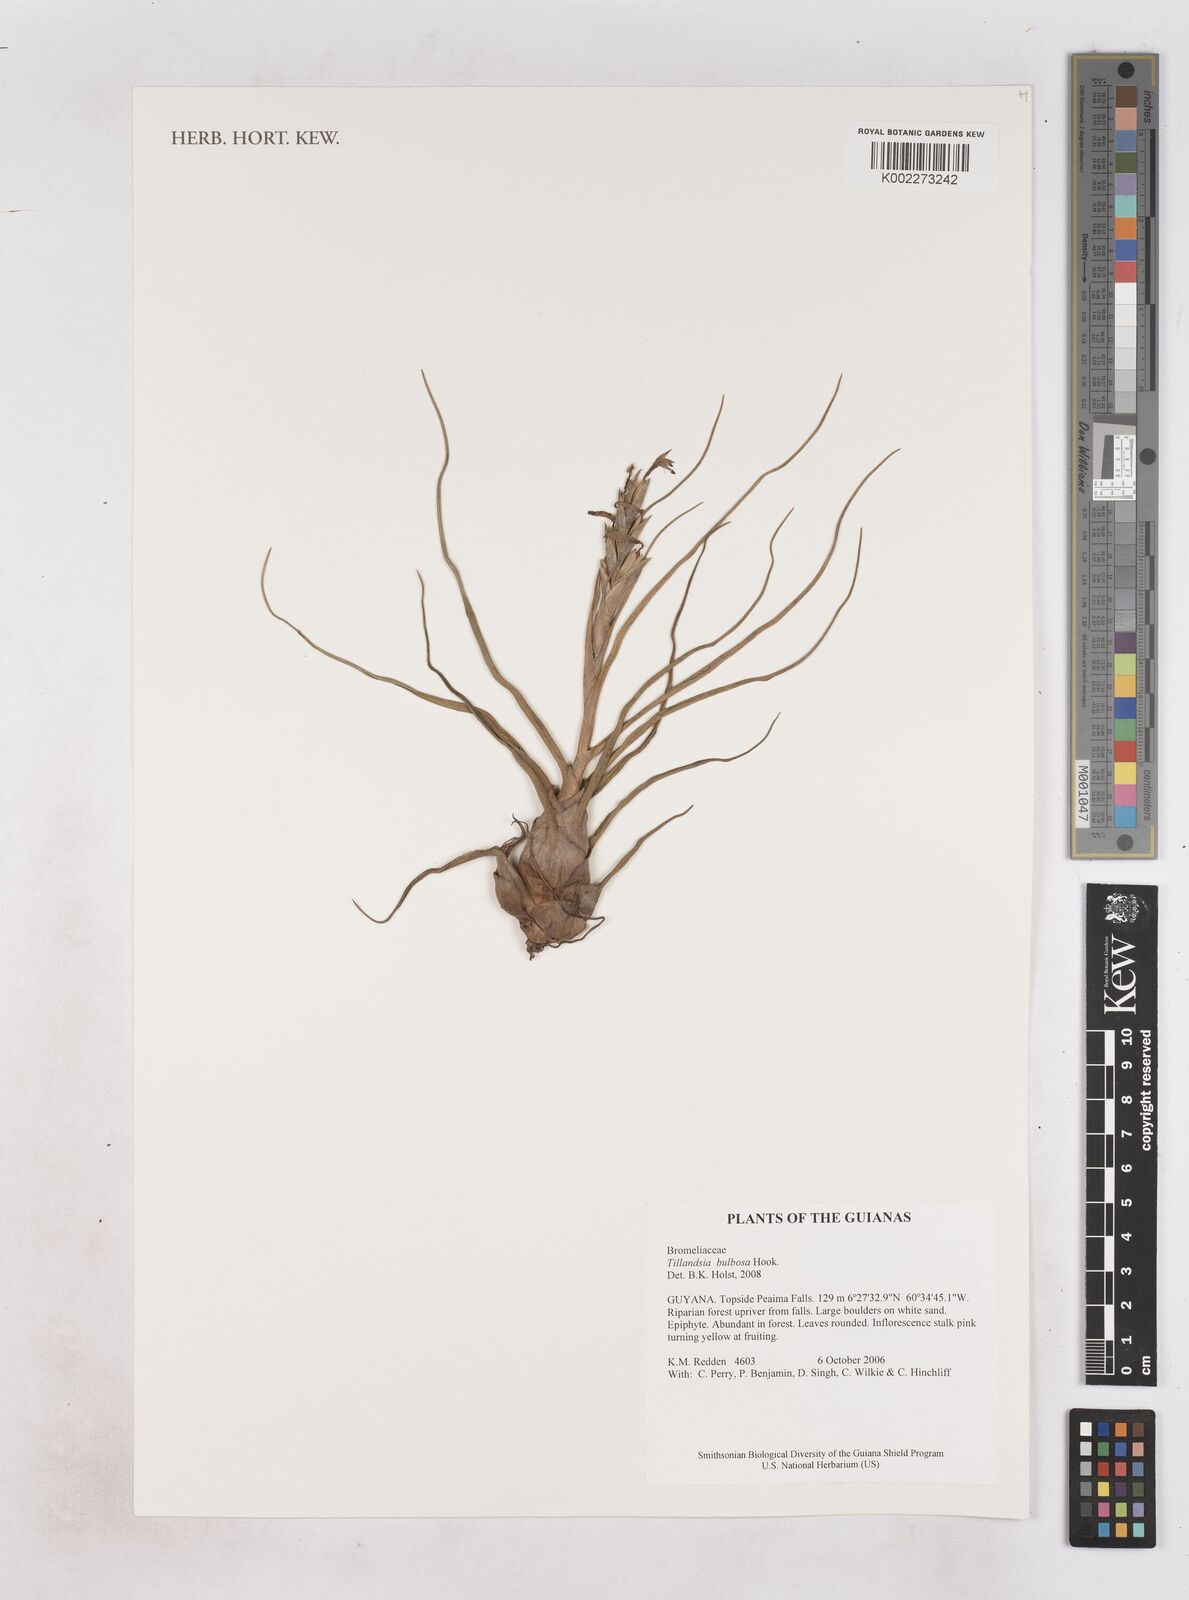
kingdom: Plantae
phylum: Tracheophyta
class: Liliopsida
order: Poales
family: Bromeliaceae
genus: Tillandsia
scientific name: Tillandsia bulbosa
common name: Bulbous airplant
